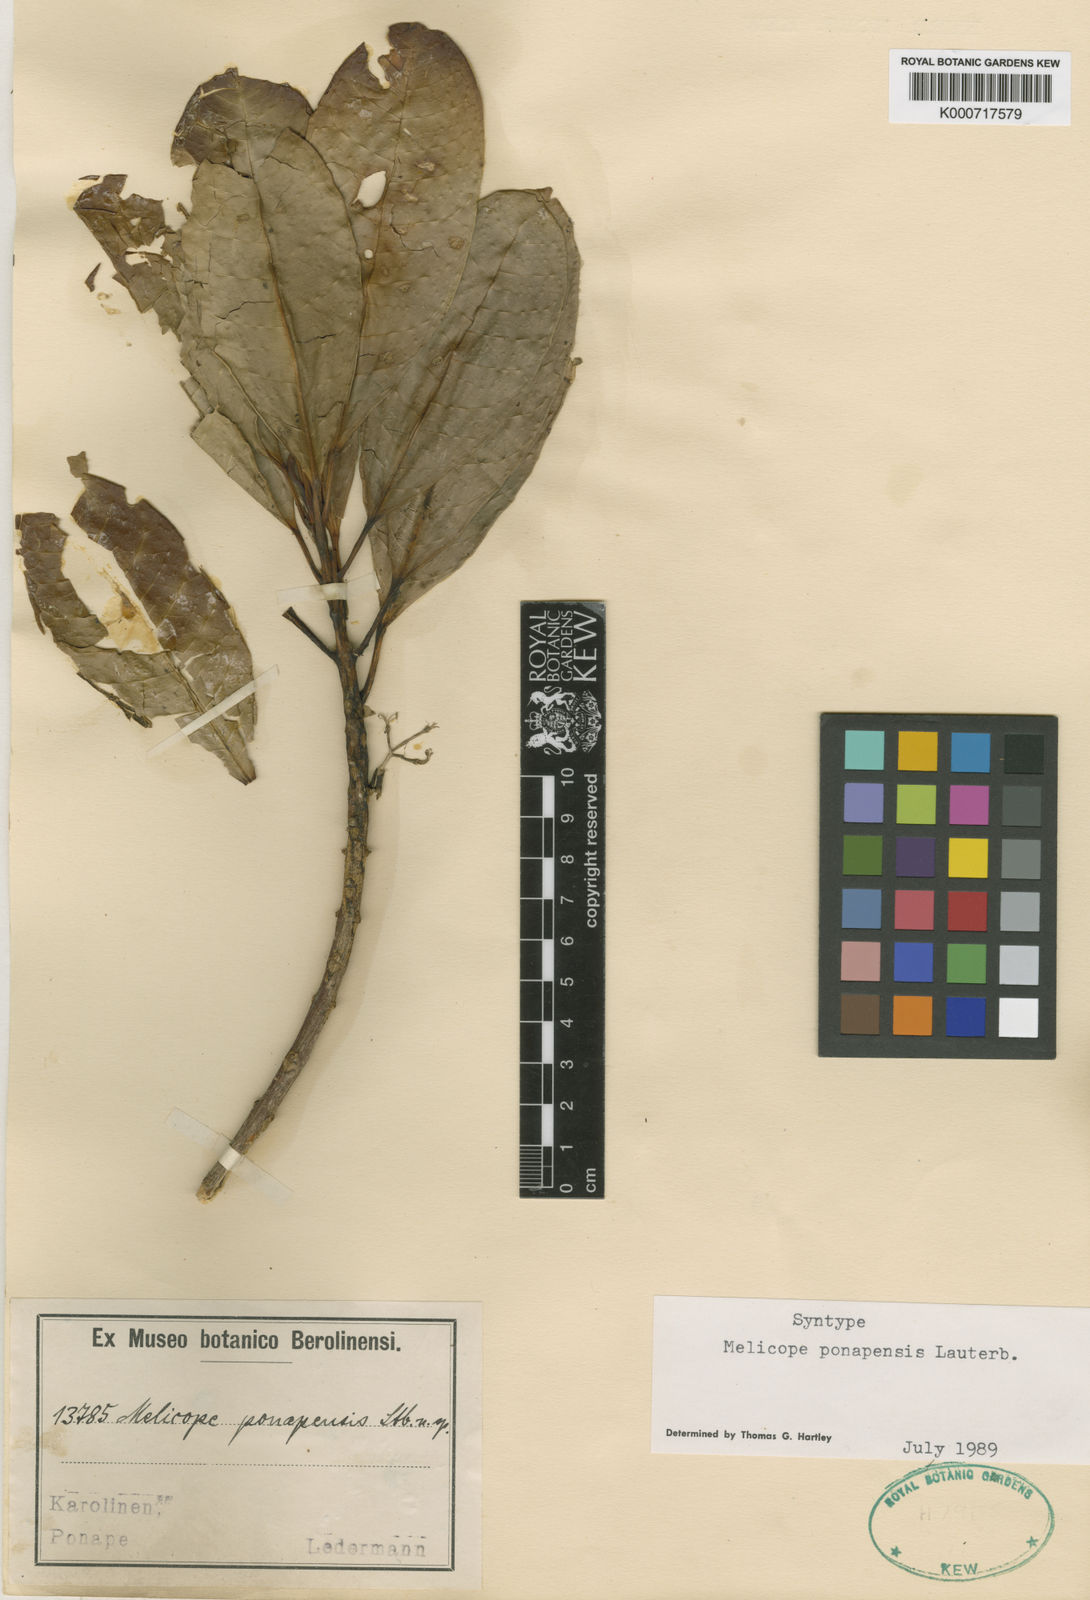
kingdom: Plantae
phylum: Tracheophyta
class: Magnoliopsida
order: Sapindales
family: Rutaceae
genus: Melicope
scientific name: Melicope ponapensis
